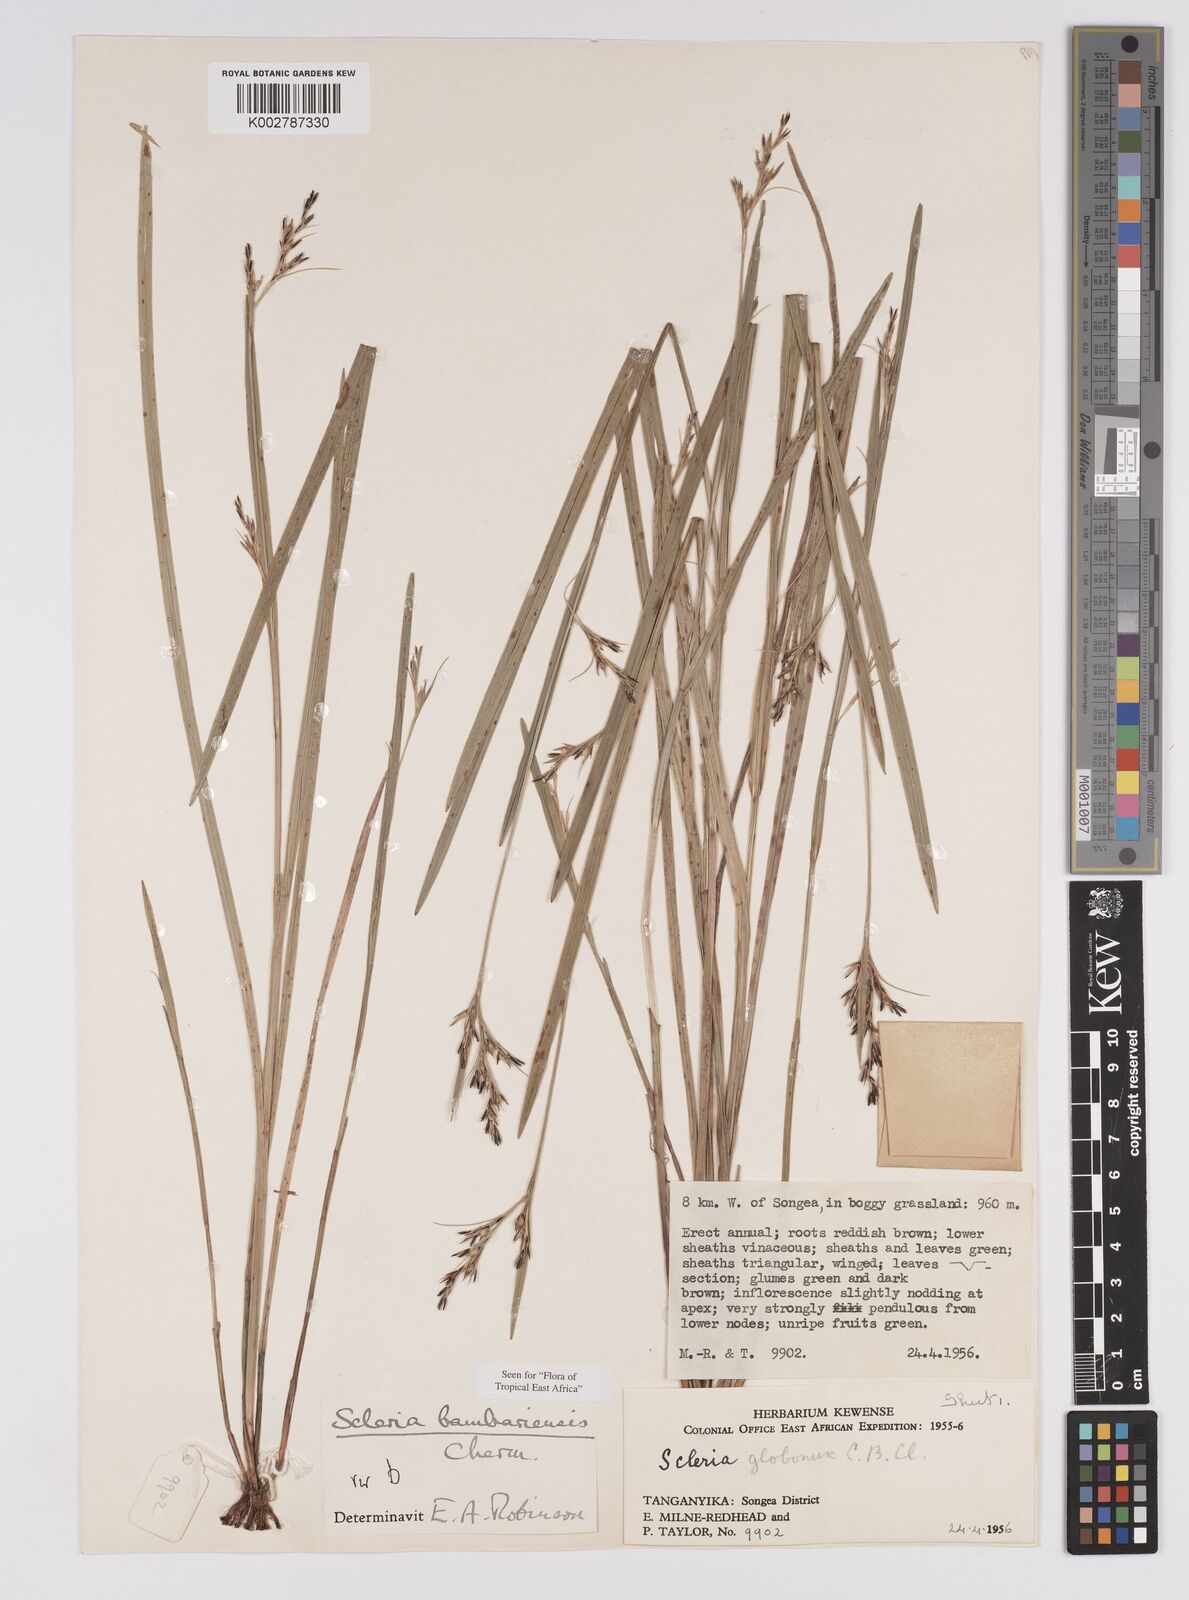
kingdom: Plantae
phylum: Tracheophyta
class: Liliopsida
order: Poales
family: Cyperaceae
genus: Scleria
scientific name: Scleria bambariensis
